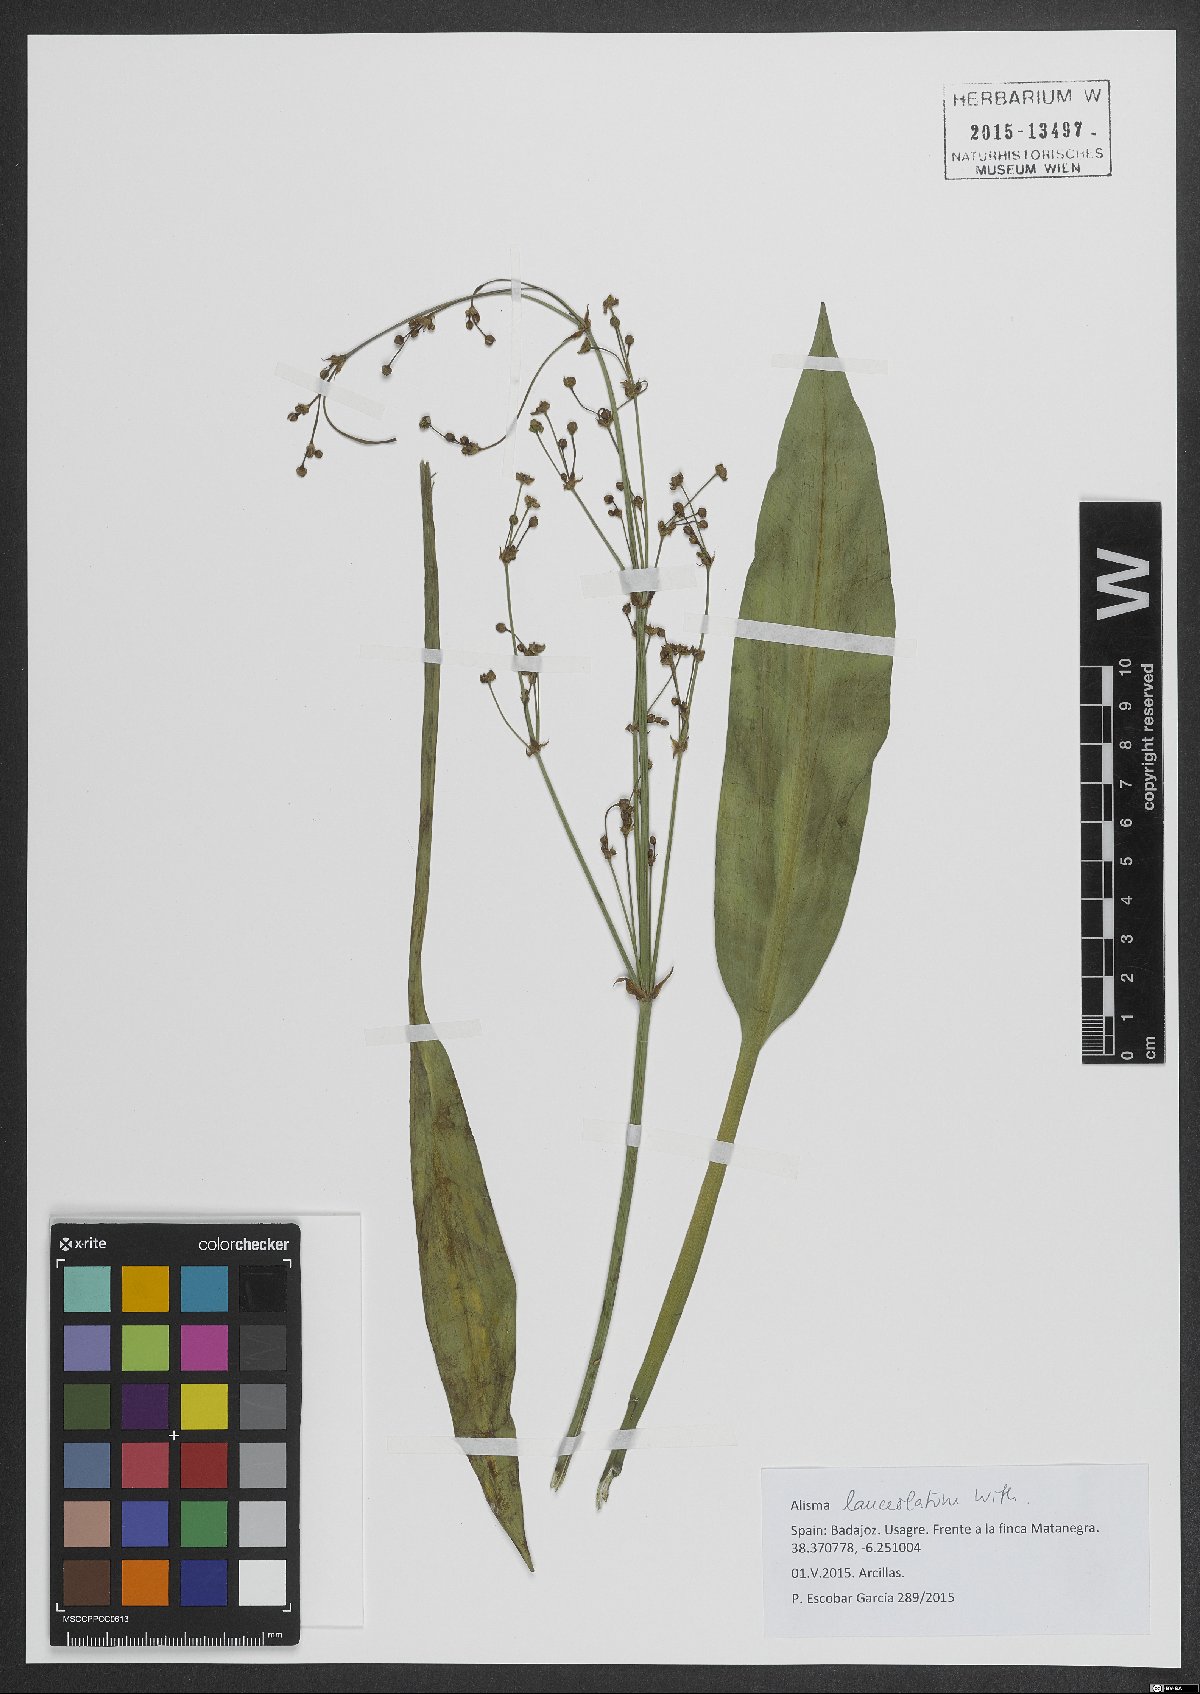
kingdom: Plantae
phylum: Tracheophyta
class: Liliopsida
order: Alismatales
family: Alismataceae
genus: Alisma
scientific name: Alisma lanceolatum
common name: Narrow-leaved water-plantain
